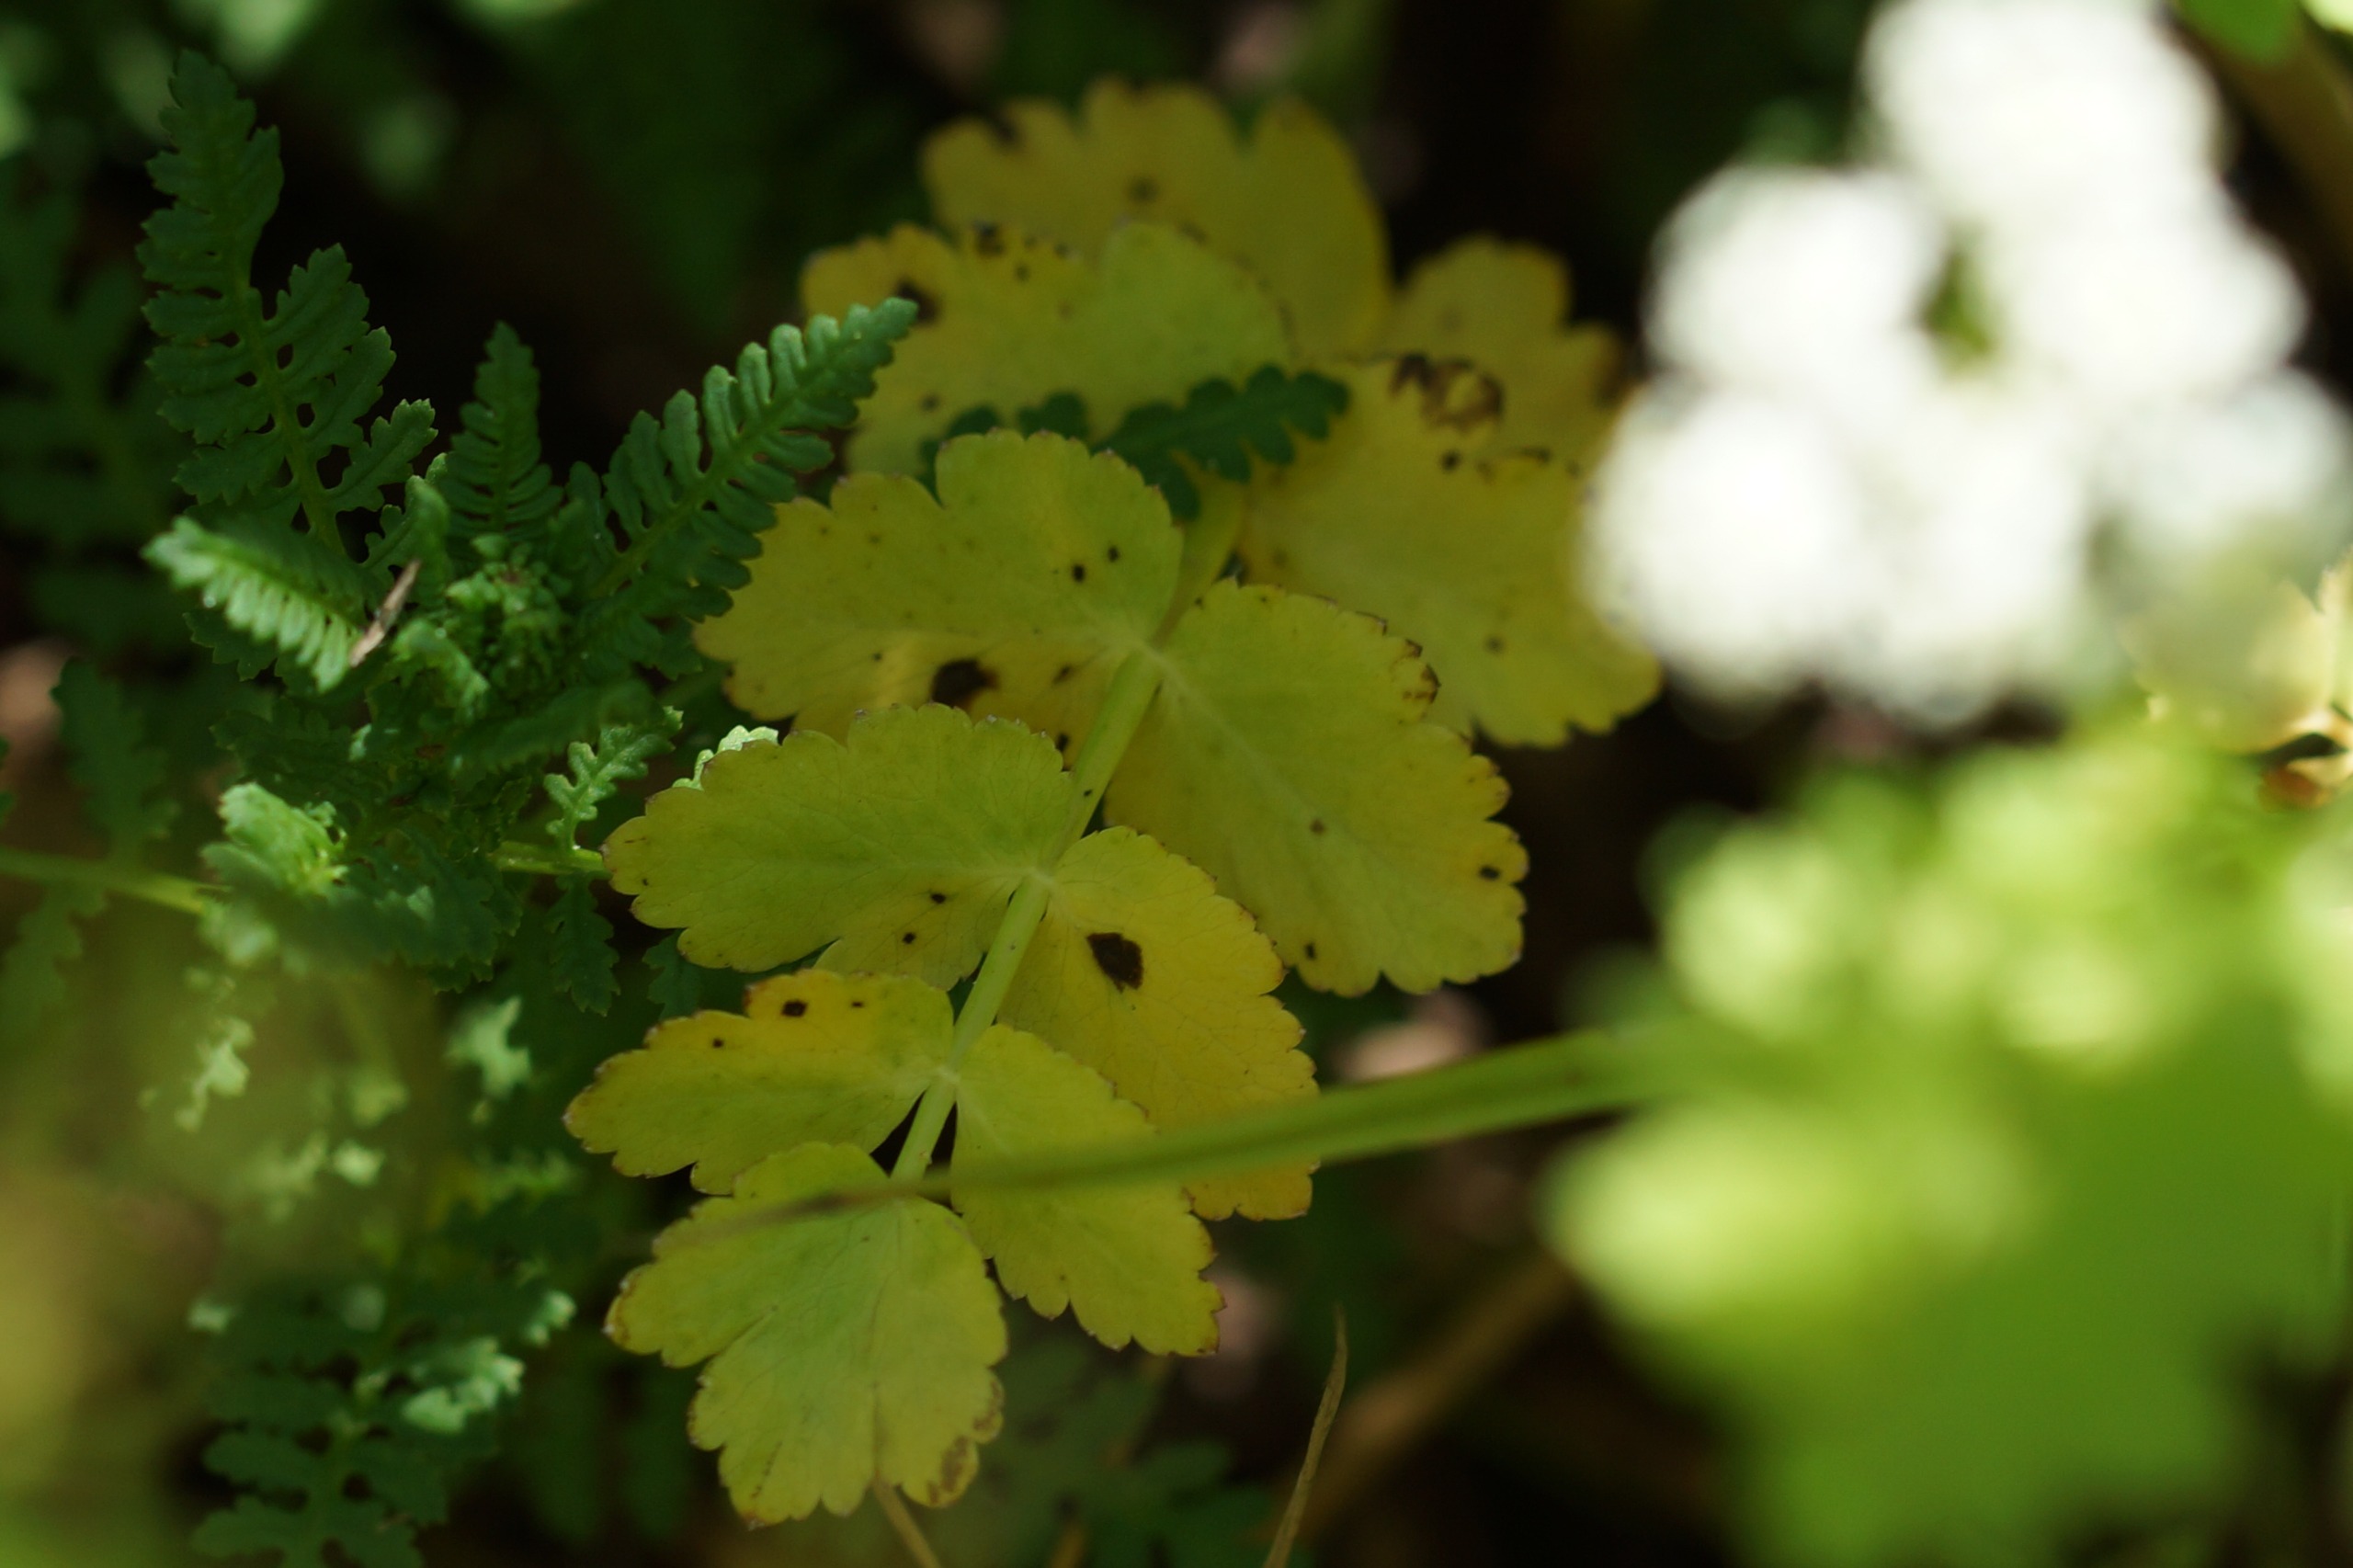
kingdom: Plantae
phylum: Tracheophyta
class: Magnoliopsida
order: Apiales
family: Apiaceae
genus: Berula
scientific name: Berula erecta
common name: Sideskærm
